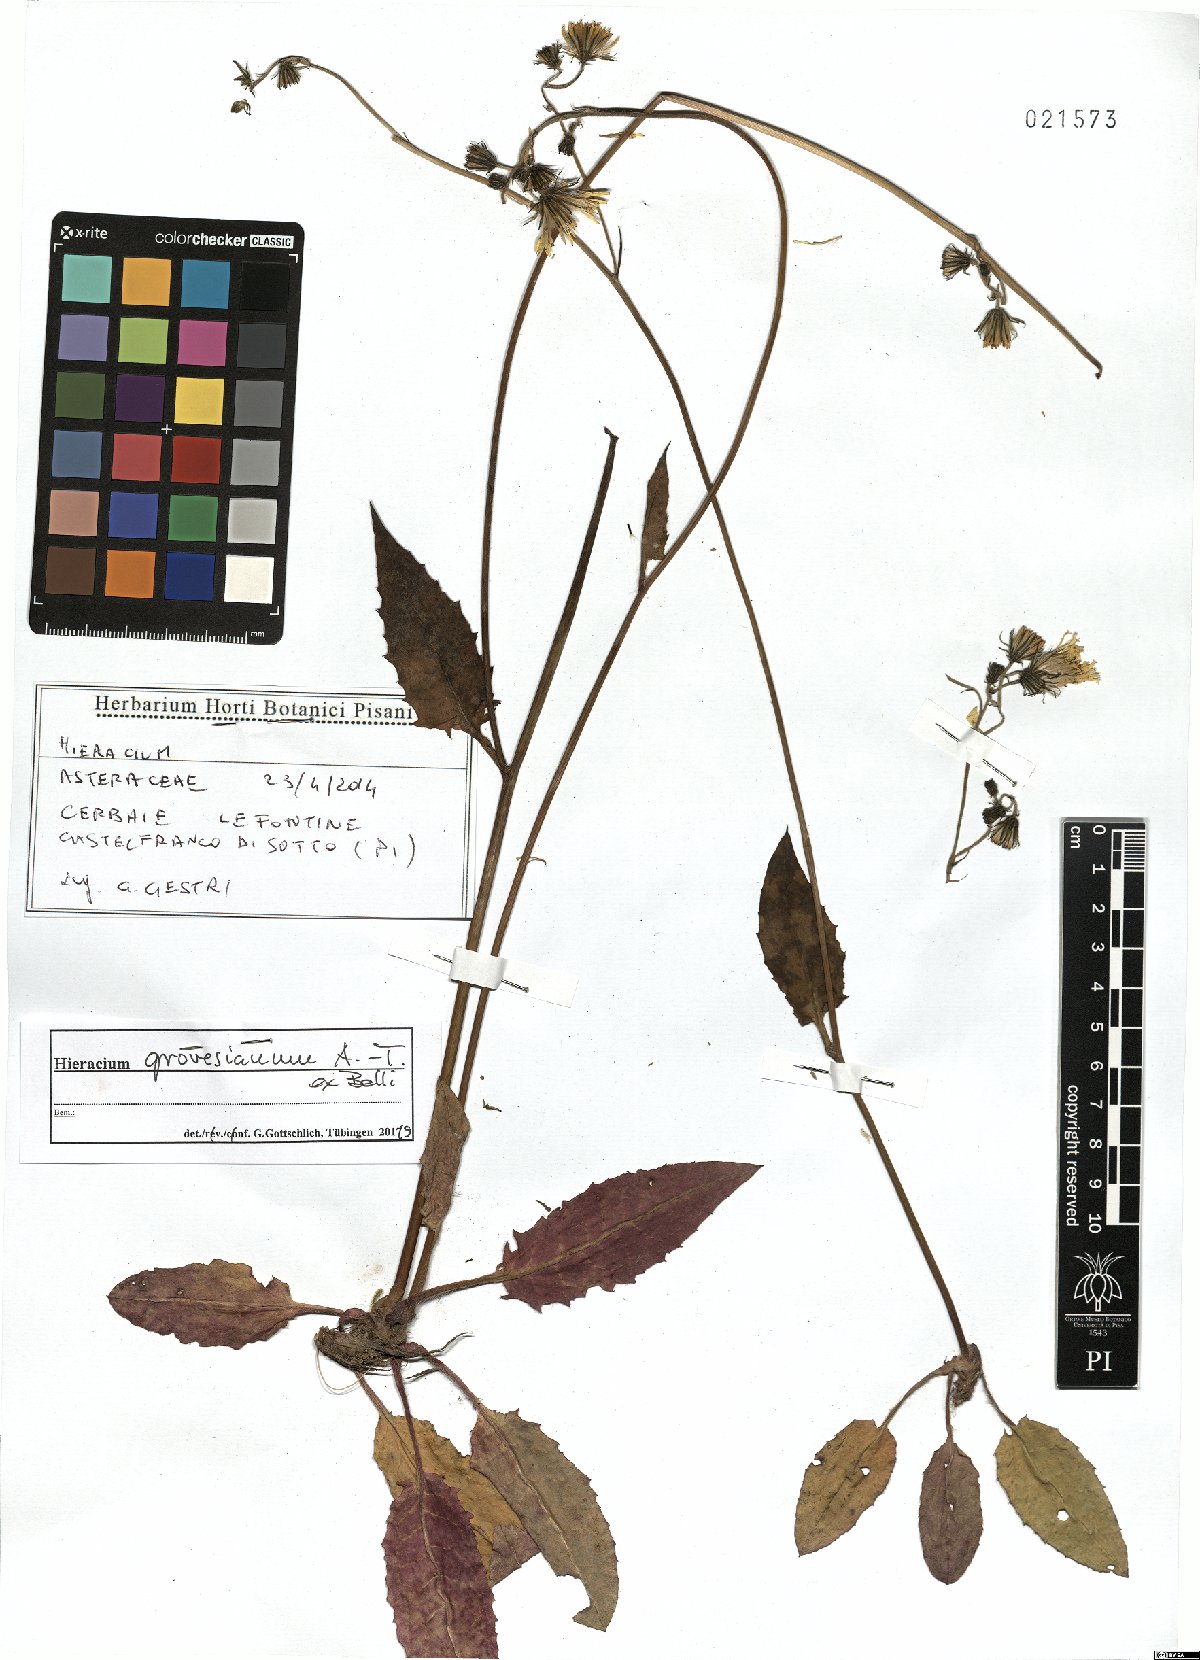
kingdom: Plantae
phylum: Tracheophyta
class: Magnoliopsida
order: Asterales
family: Asteraceae
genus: Hieracium
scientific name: Hieracium grovesianum
